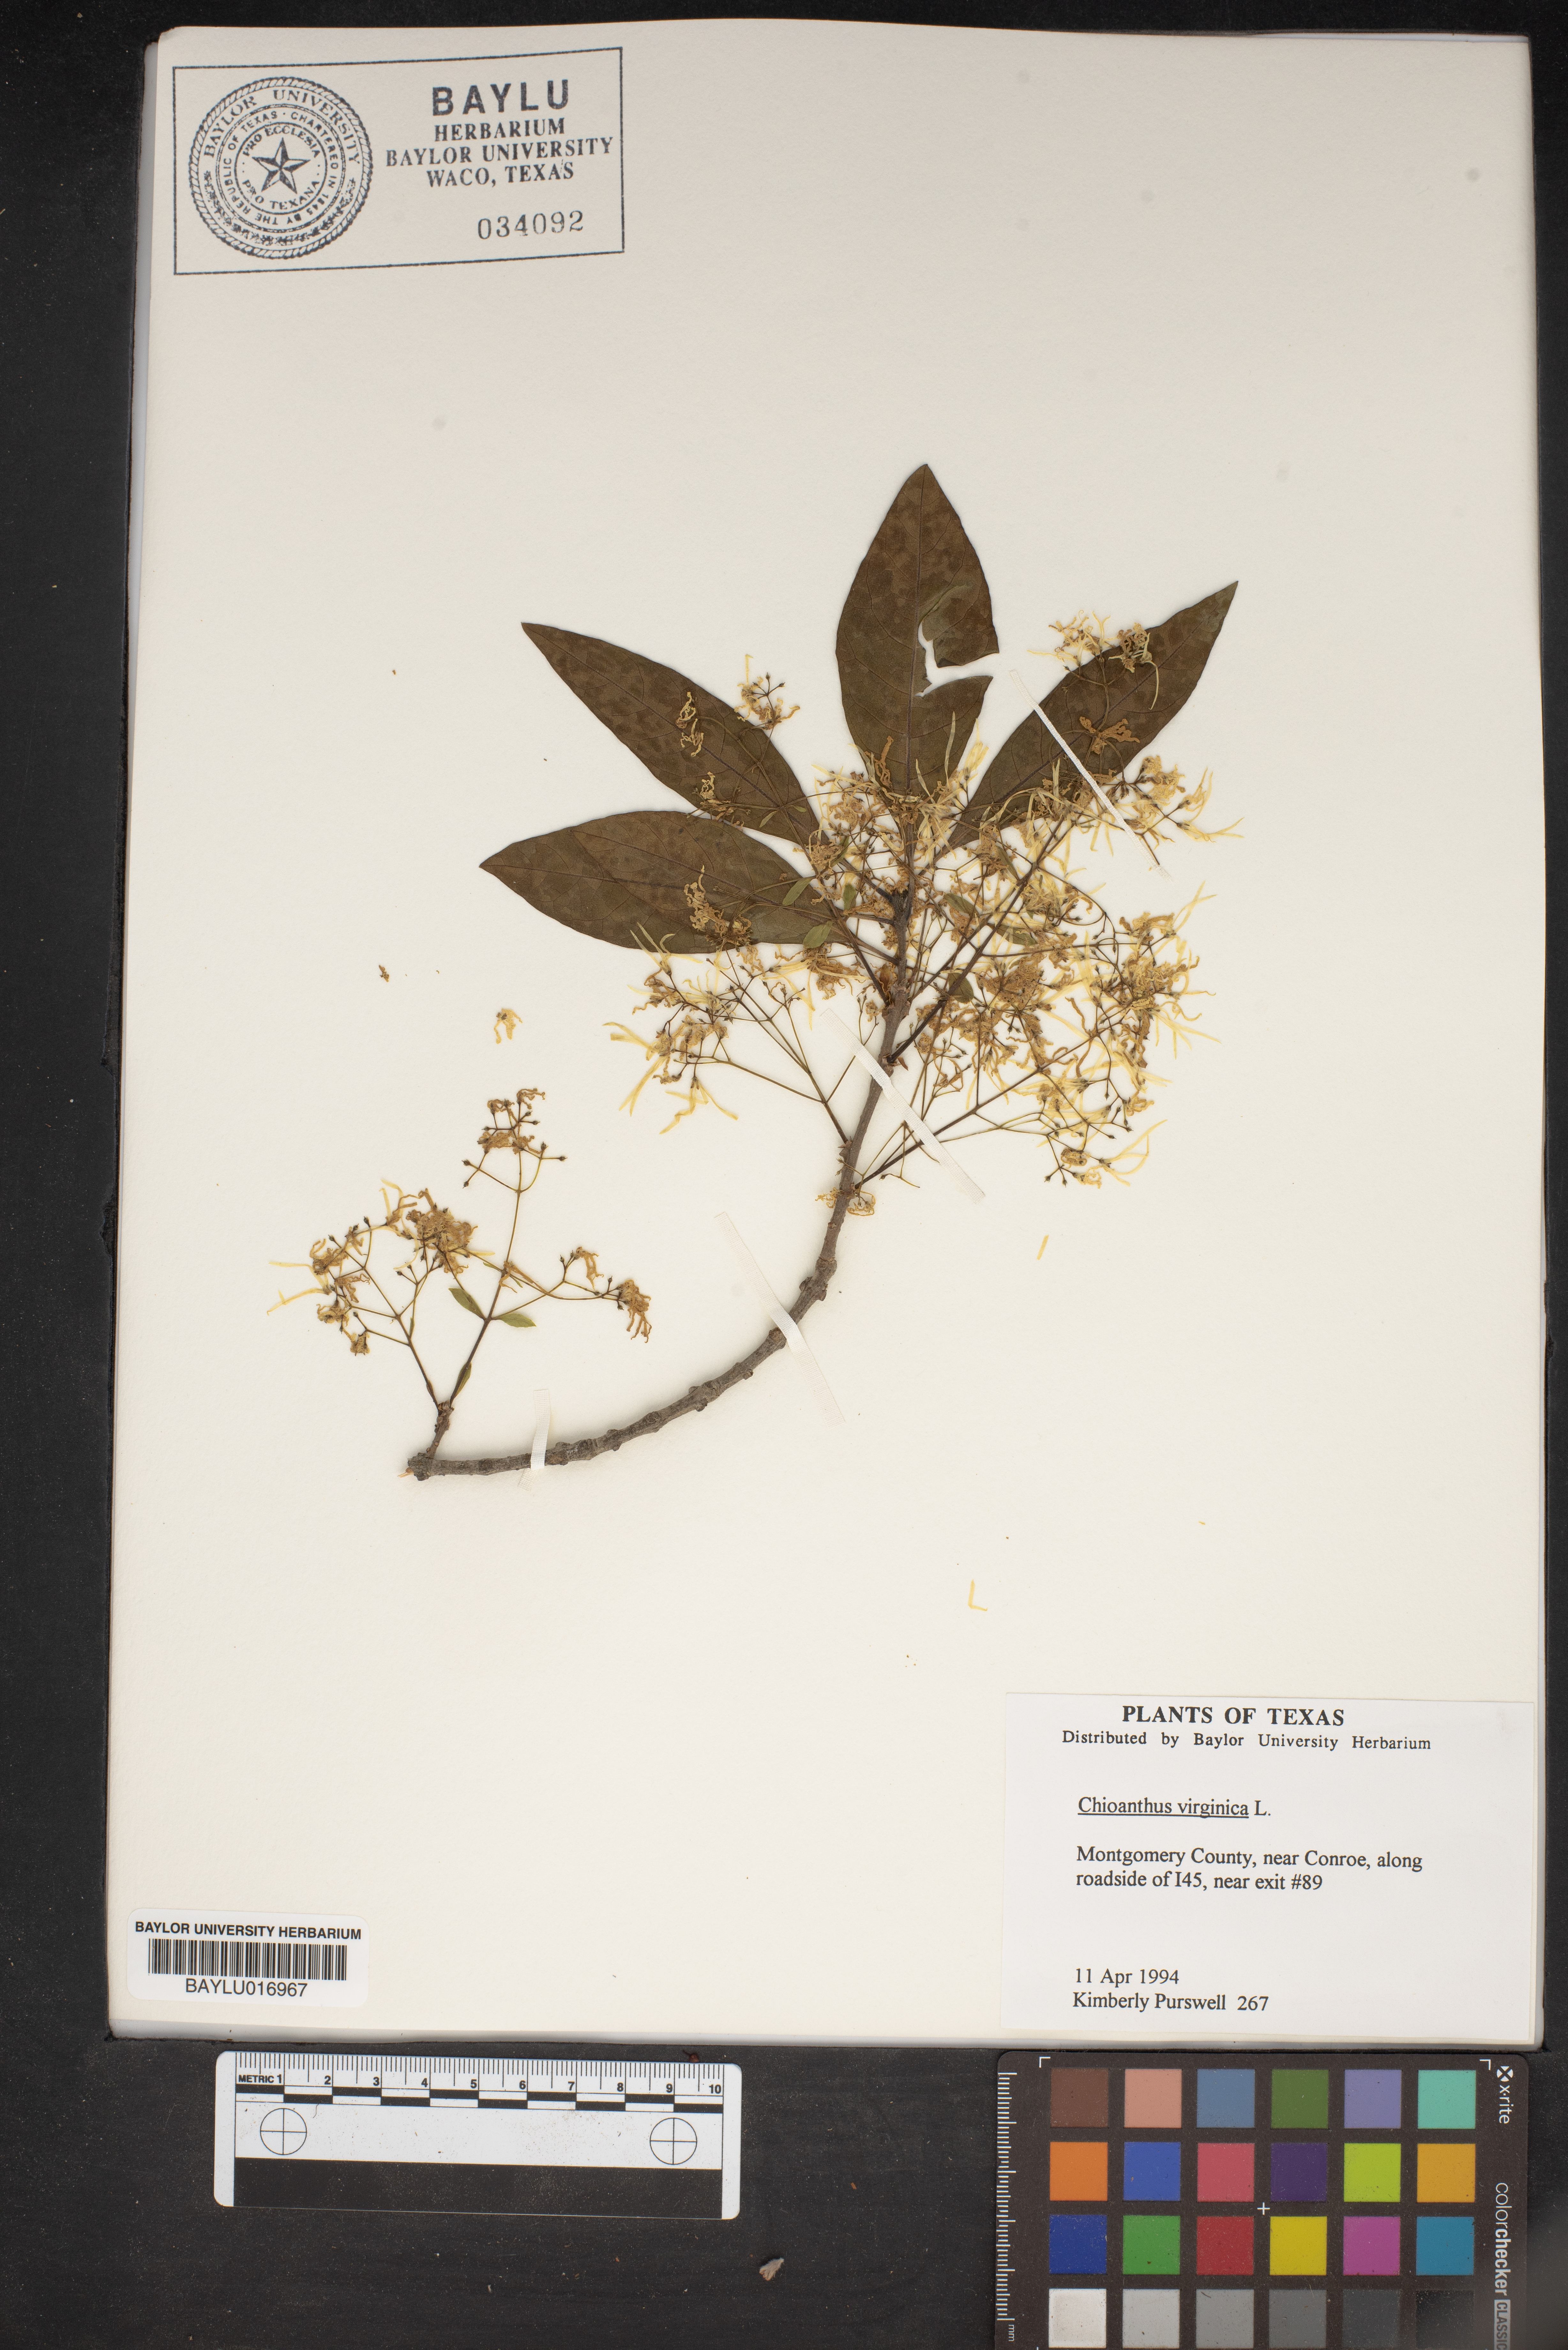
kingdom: Plantae
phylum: Tracheophyta
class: Magnoliopsida
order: Lamiales
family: Oleaceae
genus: Chionanthus
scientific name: Chionanthus virginicus
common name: American fringetree
